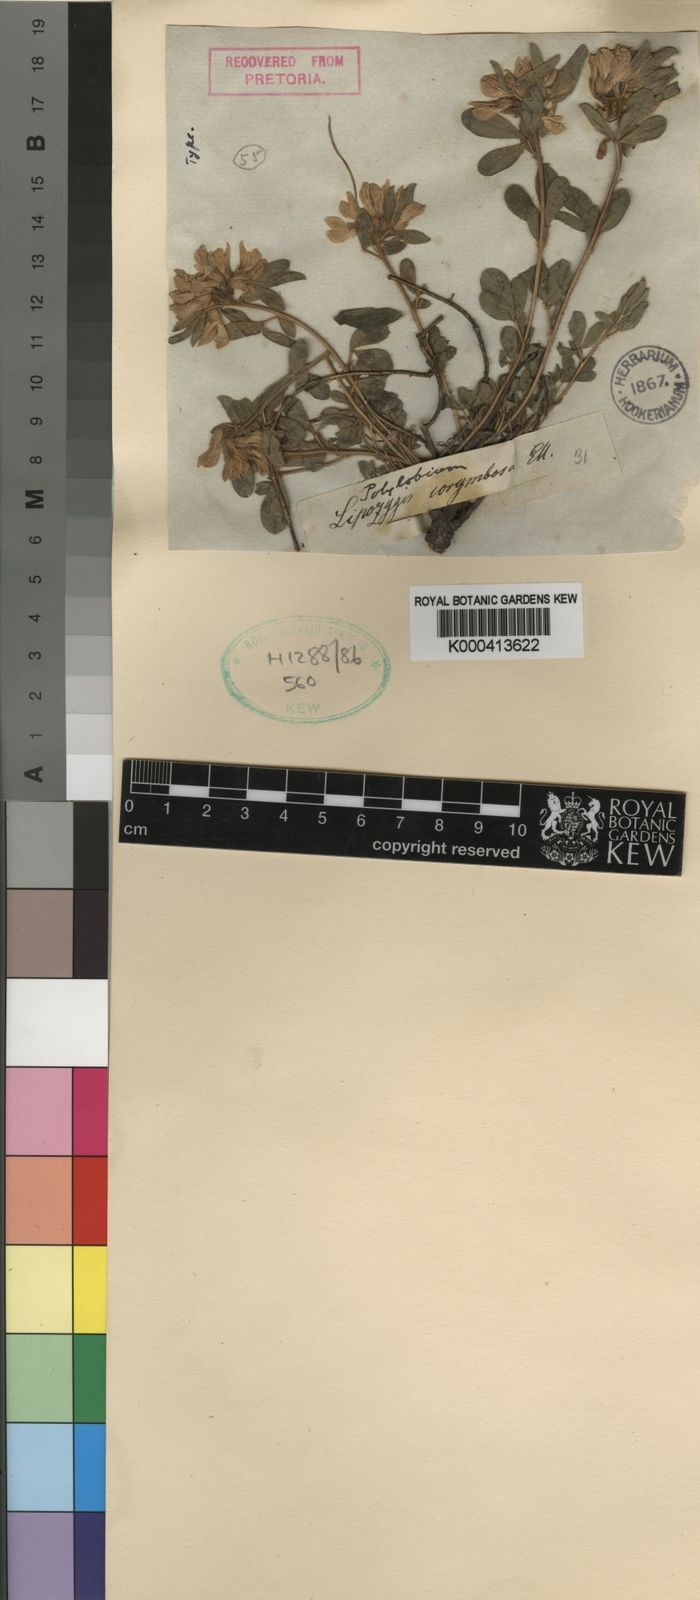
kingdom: Plantae
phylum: Tracheophyta
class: Magnoliopsida
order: Fabales
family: Fabaceae
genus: Leobordea
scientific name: Leobordea corymbosa
